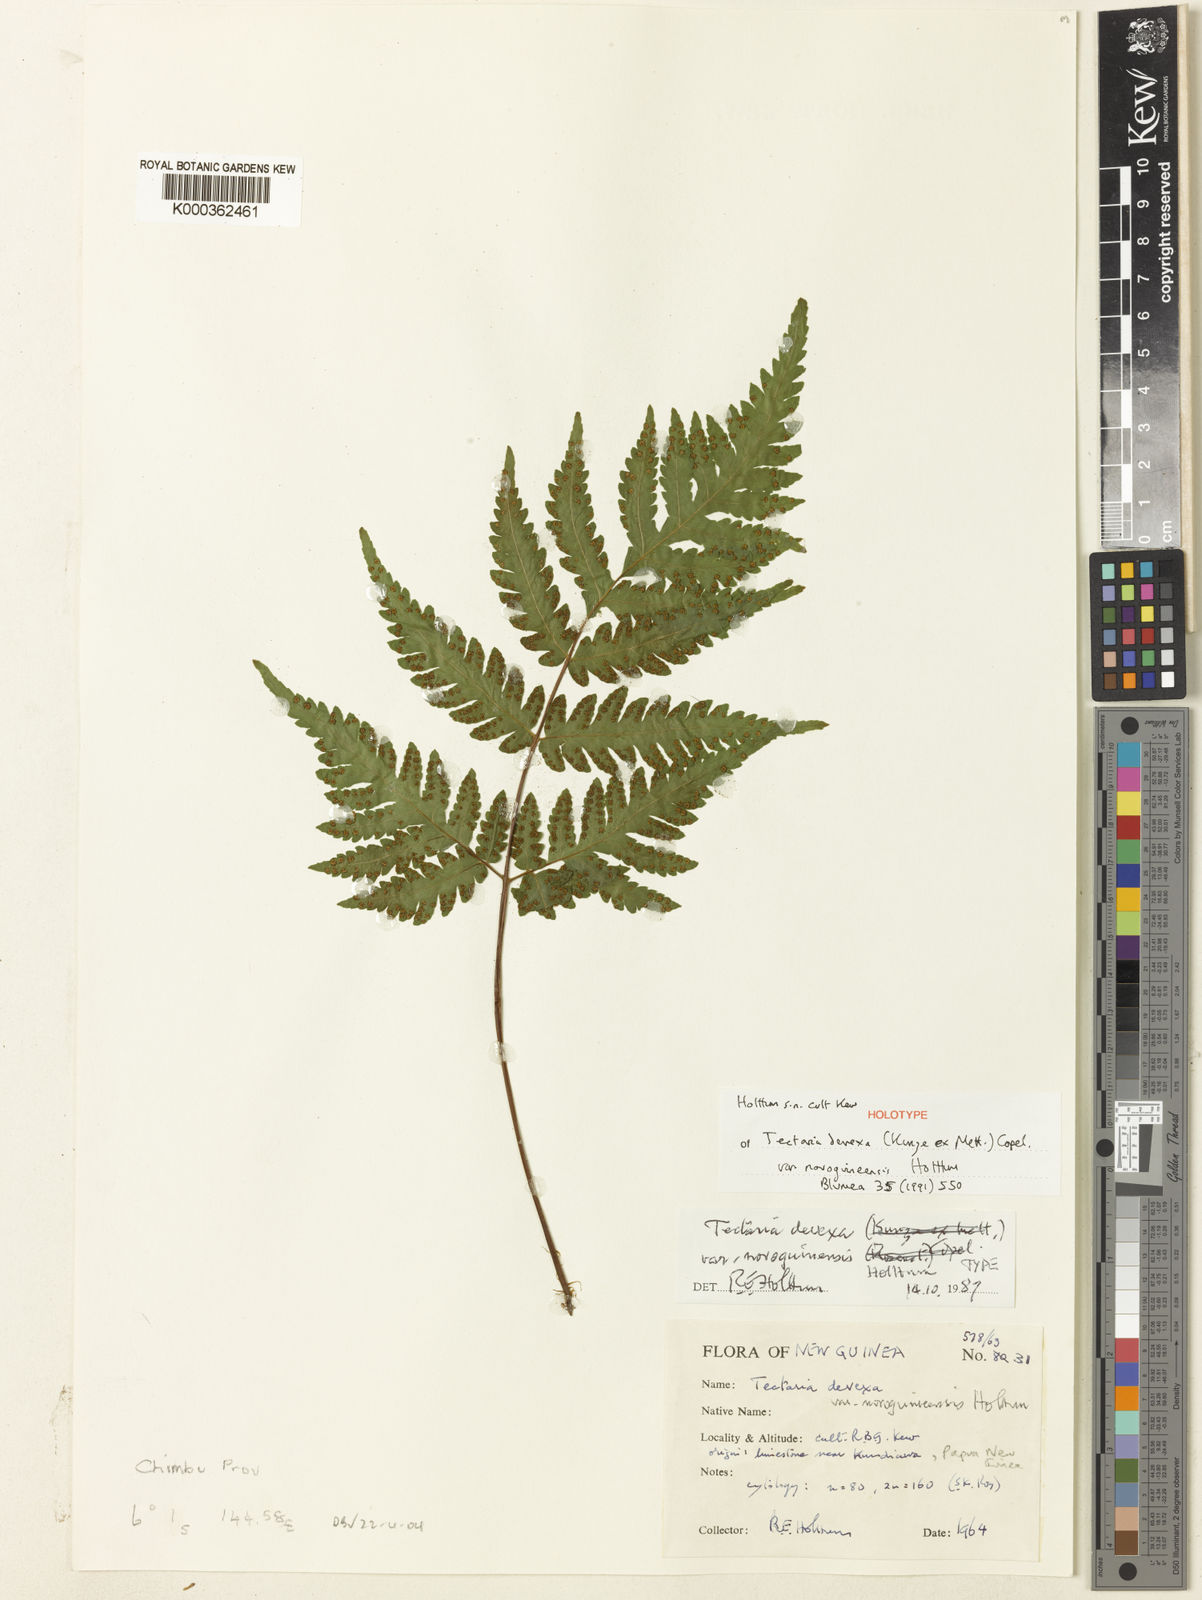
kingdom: Plantae
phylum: Tracheophyta
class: Polypodiopsida
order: Polypodiales
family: Tectariaceae
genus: Tectaria
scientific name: Tectaria membranacea
